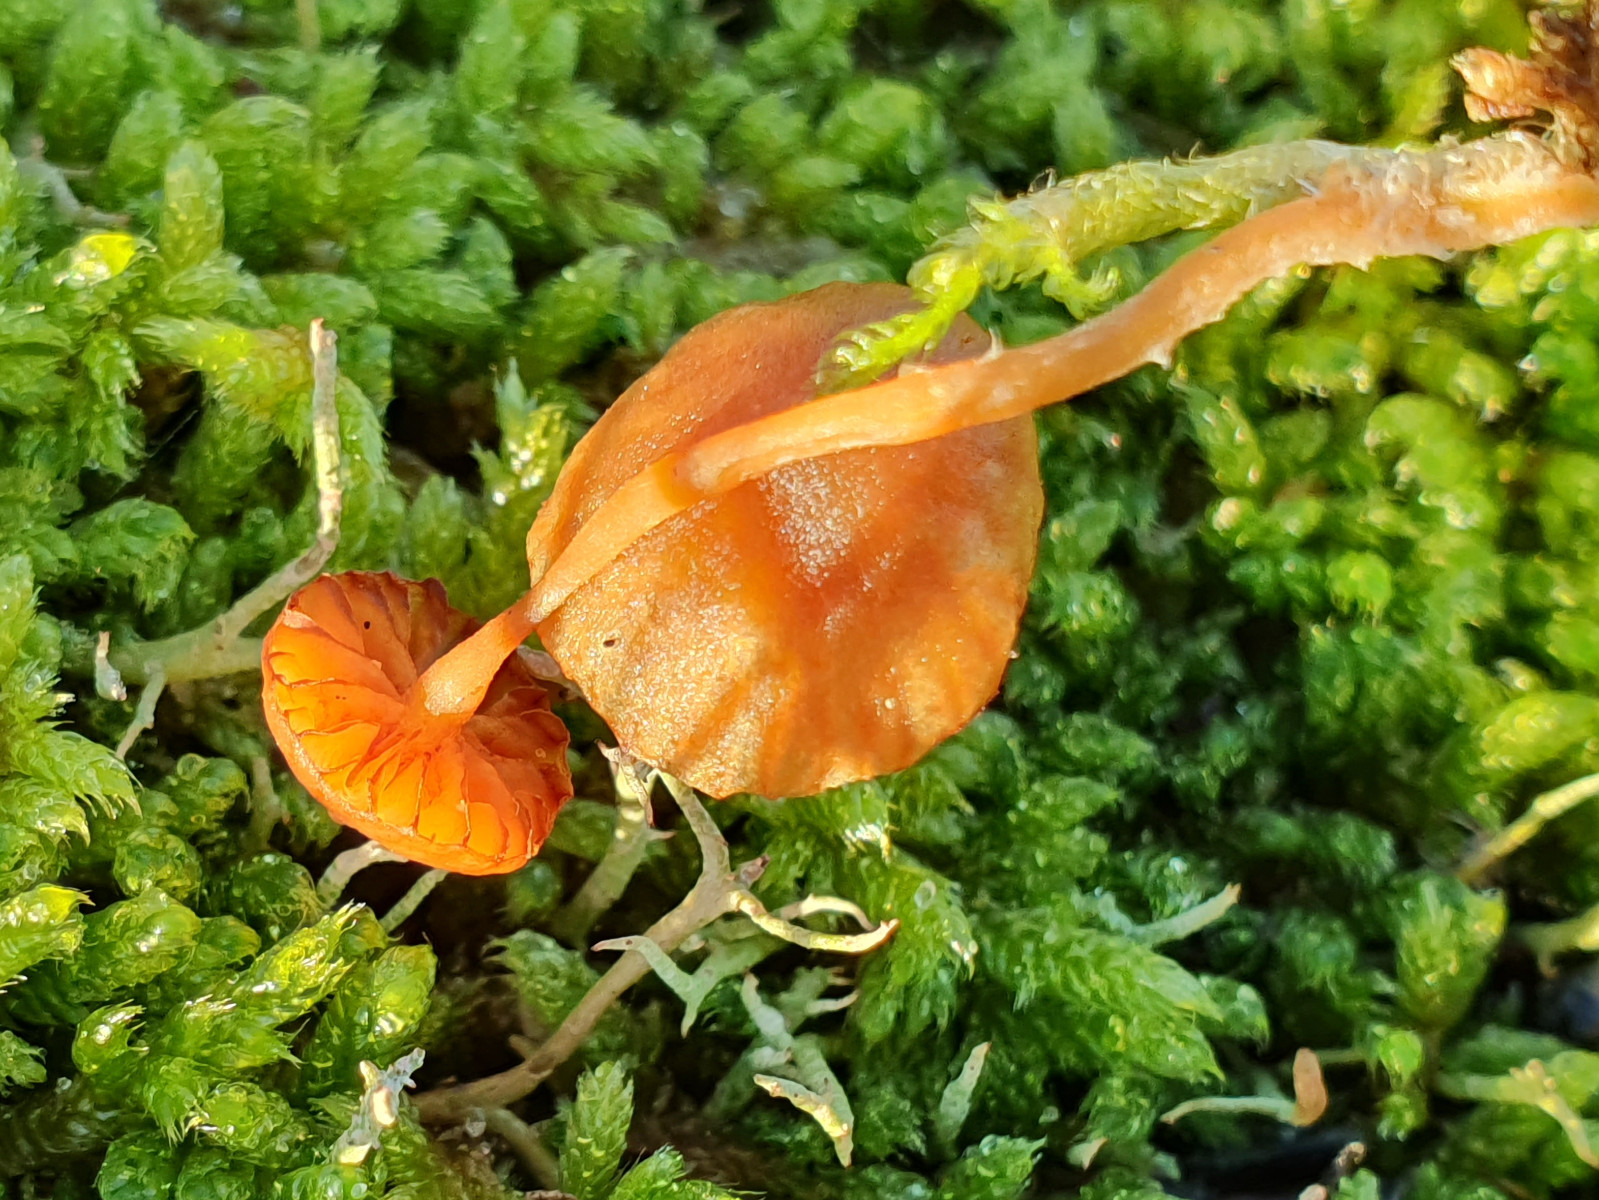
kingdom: Fungi
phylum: Basidiomycota
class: Agaricomycetes
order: Agaricales
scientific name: Agaricales
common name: champignonordenen
